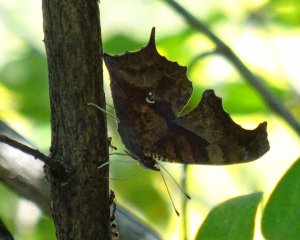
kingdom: Animalia
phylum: Arthropoda
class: Insecta
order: Lepidoptera
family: Nymphalidae
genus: Polygonia
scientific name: Polygonia interrogationis
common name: Question Mark
